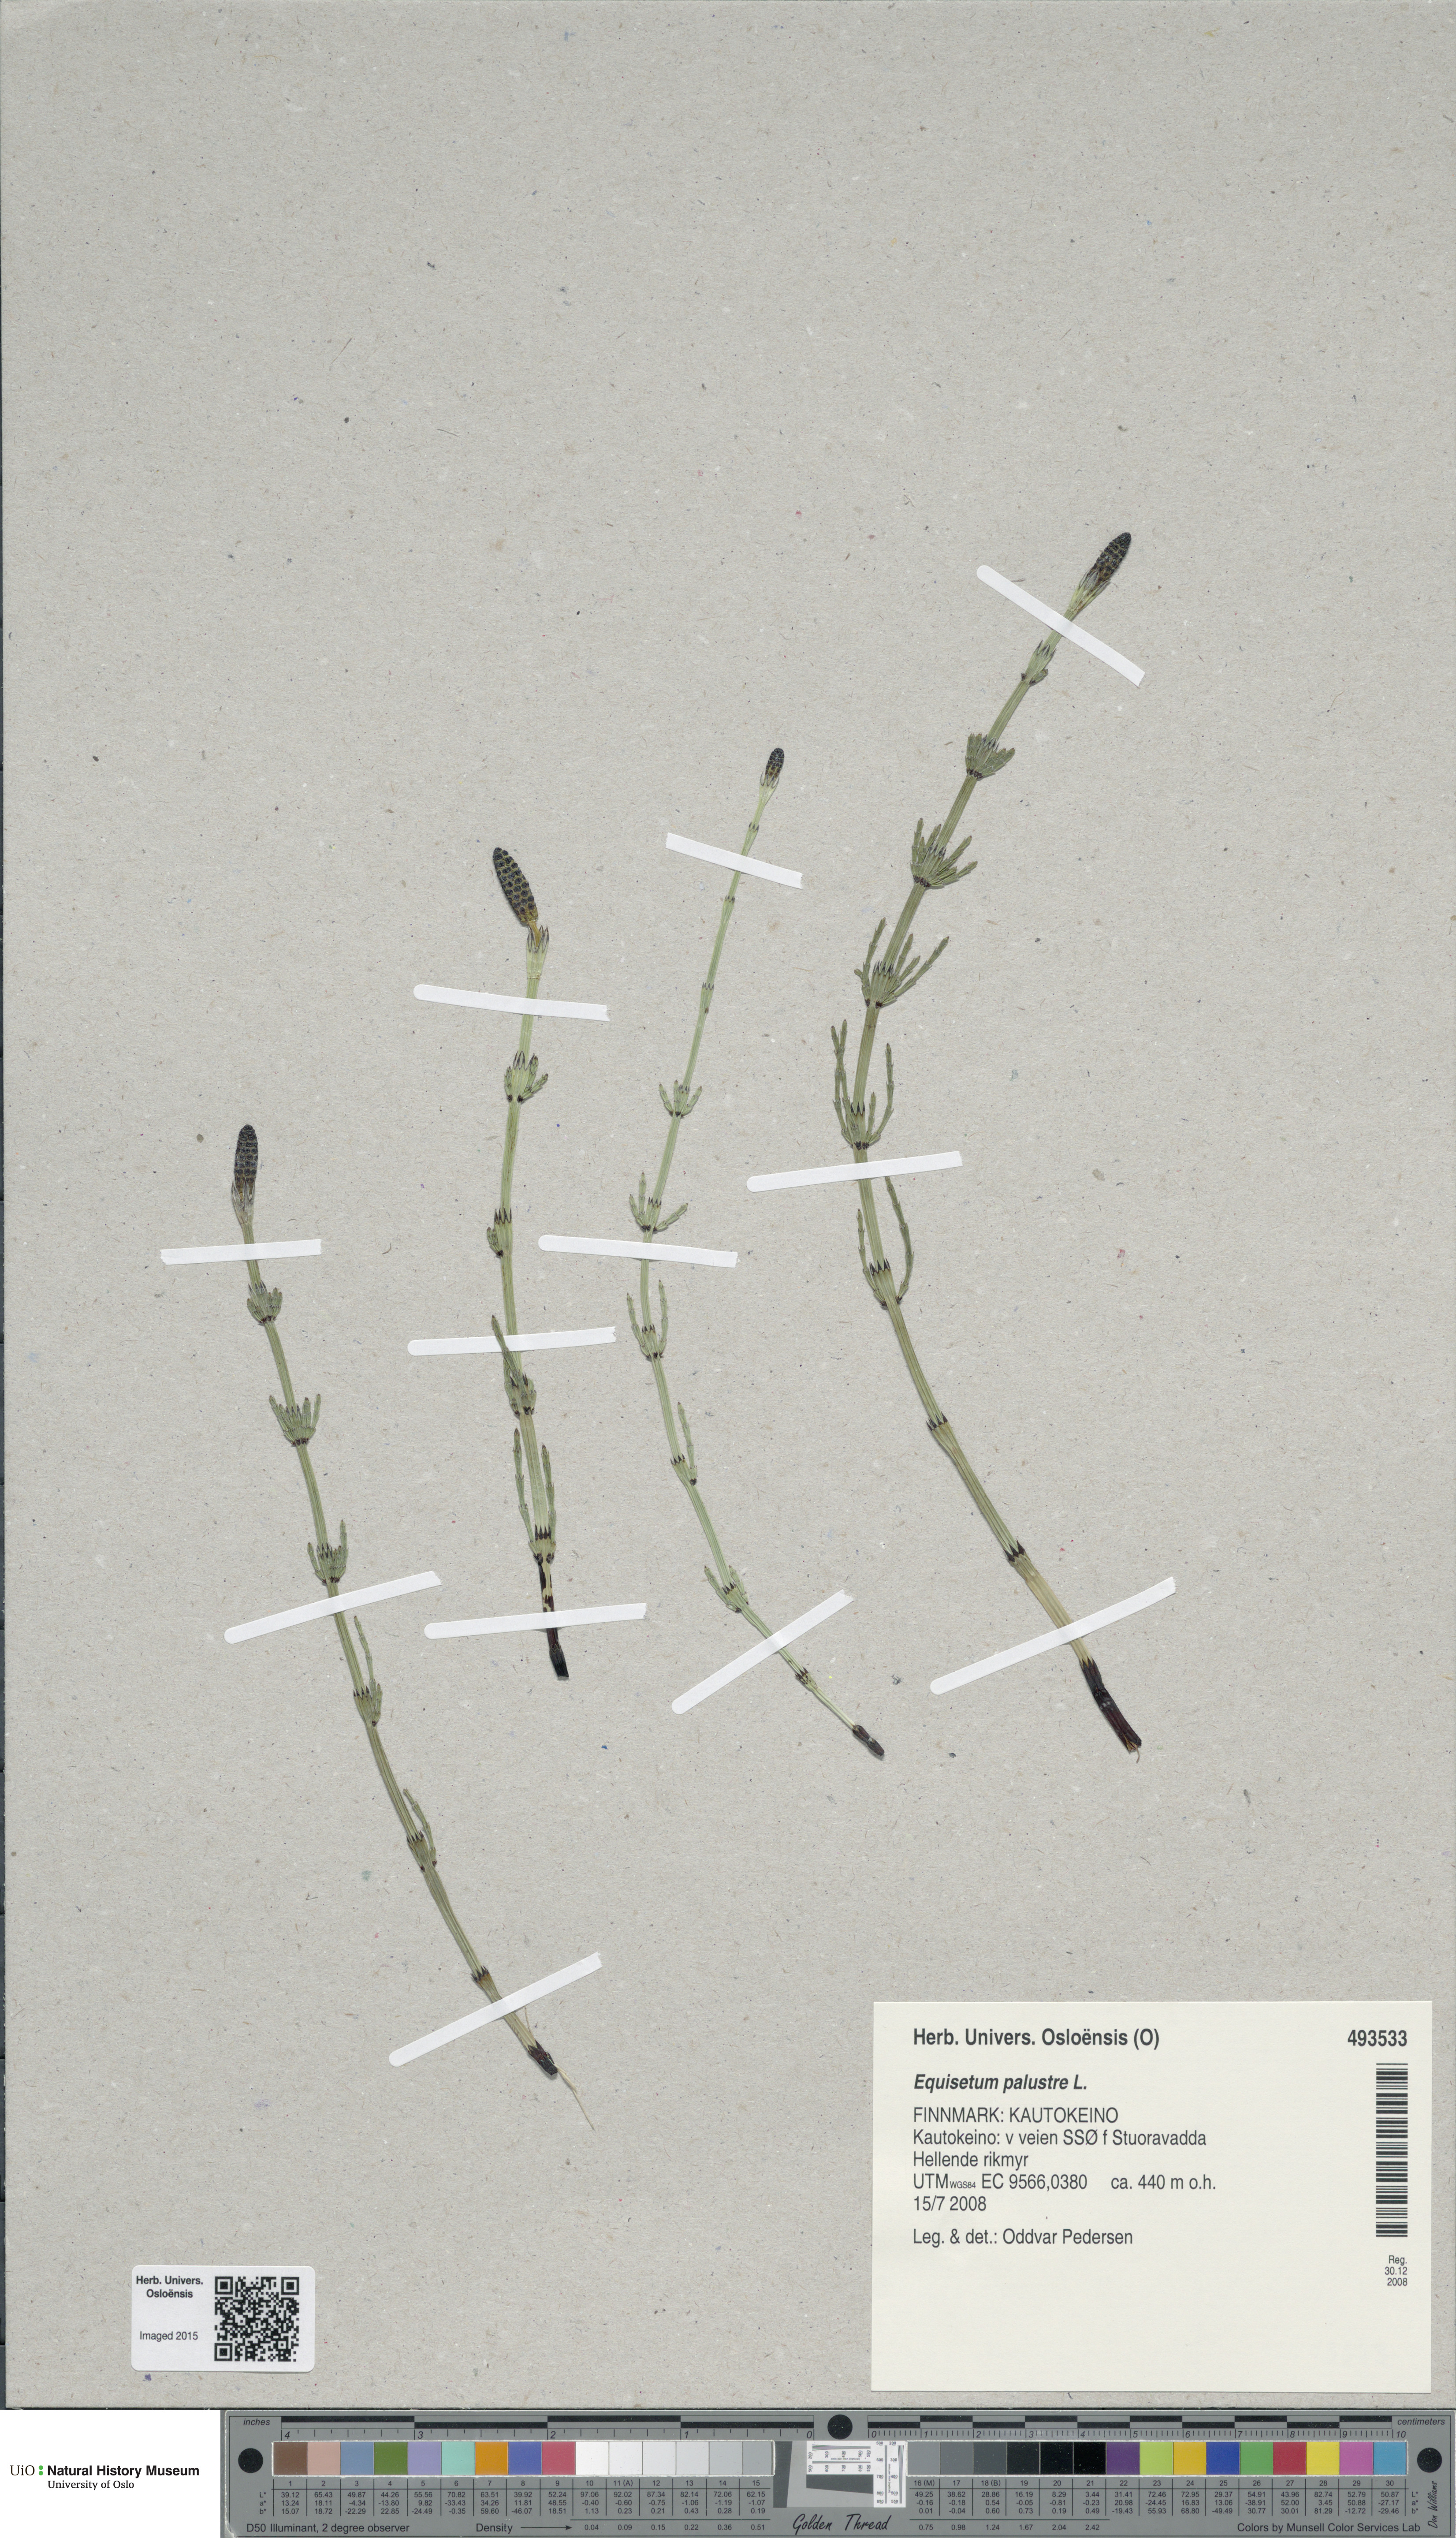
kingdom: Plantae
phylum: Tracheophyta
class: Polypodiopsida
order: Equisetales
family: Equisetaceae
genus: Equisetum
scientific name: Equisetum palustre
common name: Marsh horsetail
